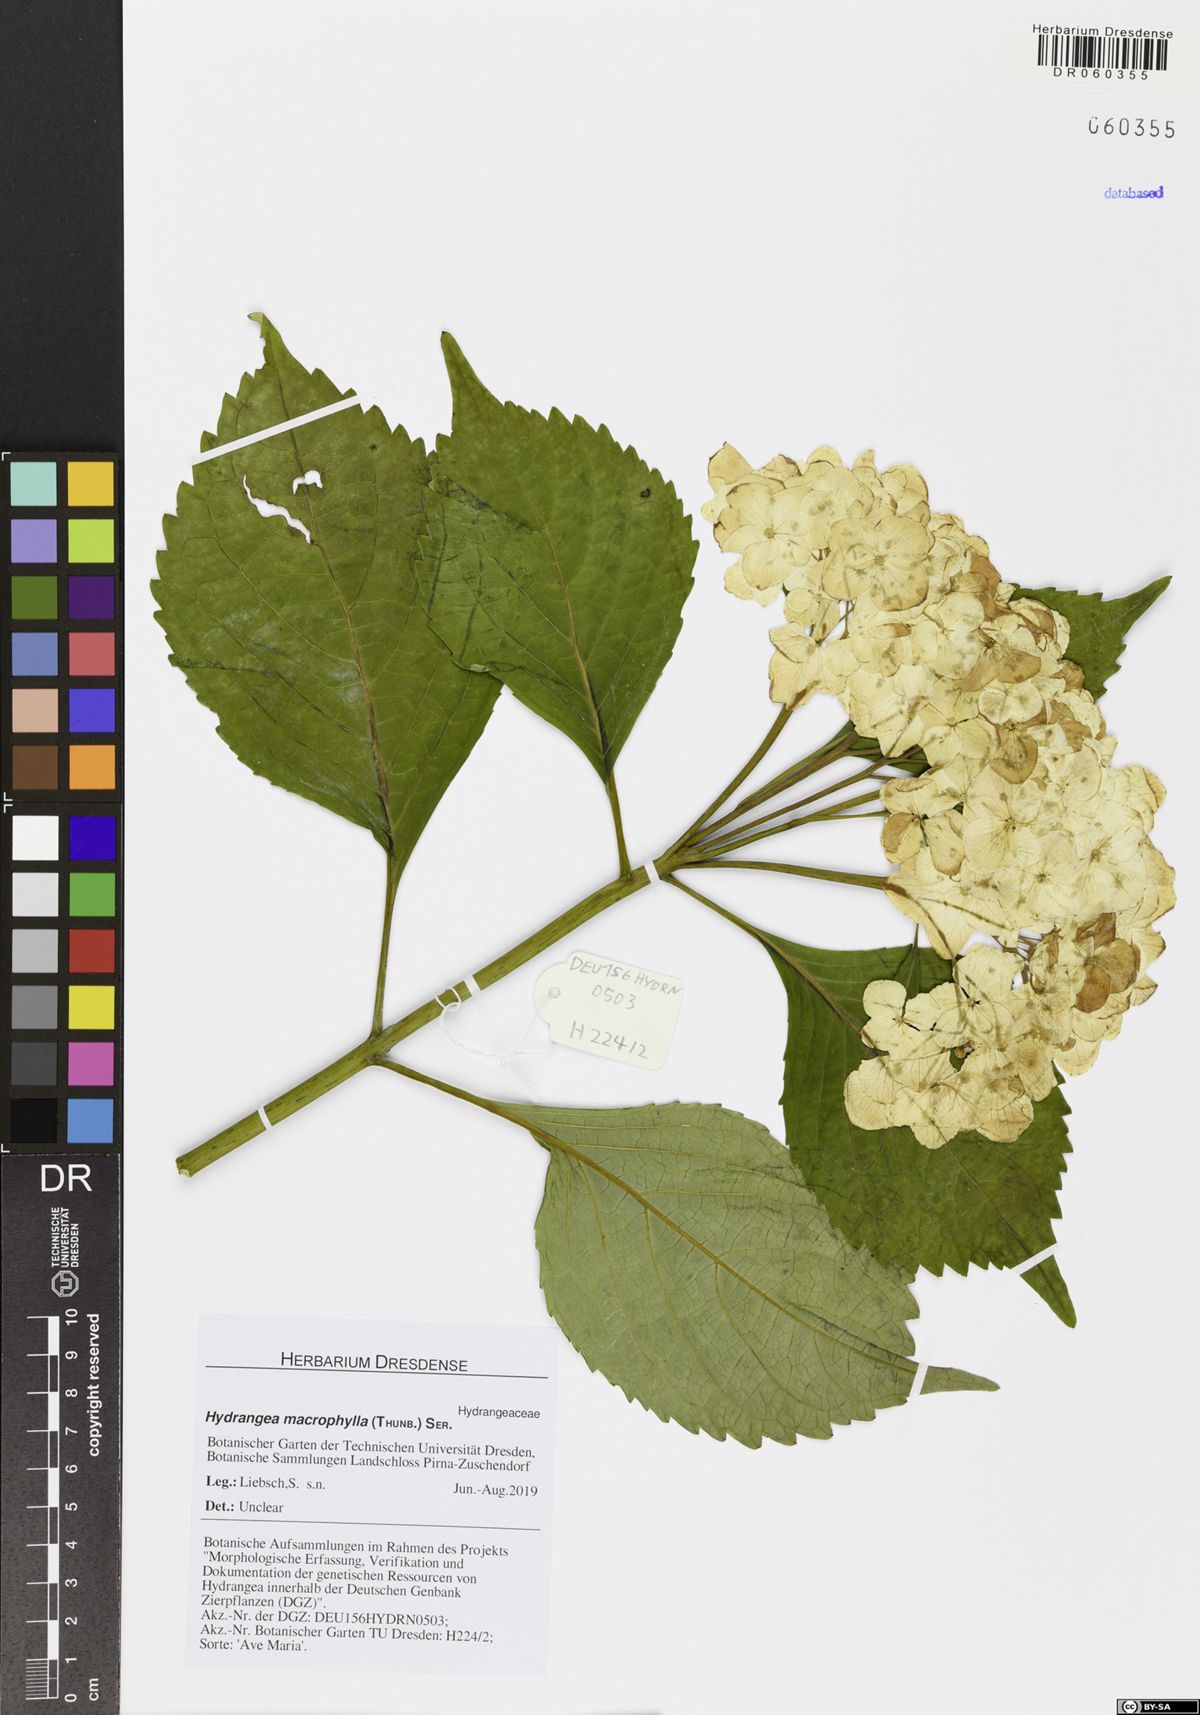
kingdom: Plantae
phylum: Tracheophyta
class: Magnoliopsida
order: Cornales
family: Hydrangeaceae
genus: Hydrangea
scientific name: Hydrangea macrophylla
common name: Hydrangea
